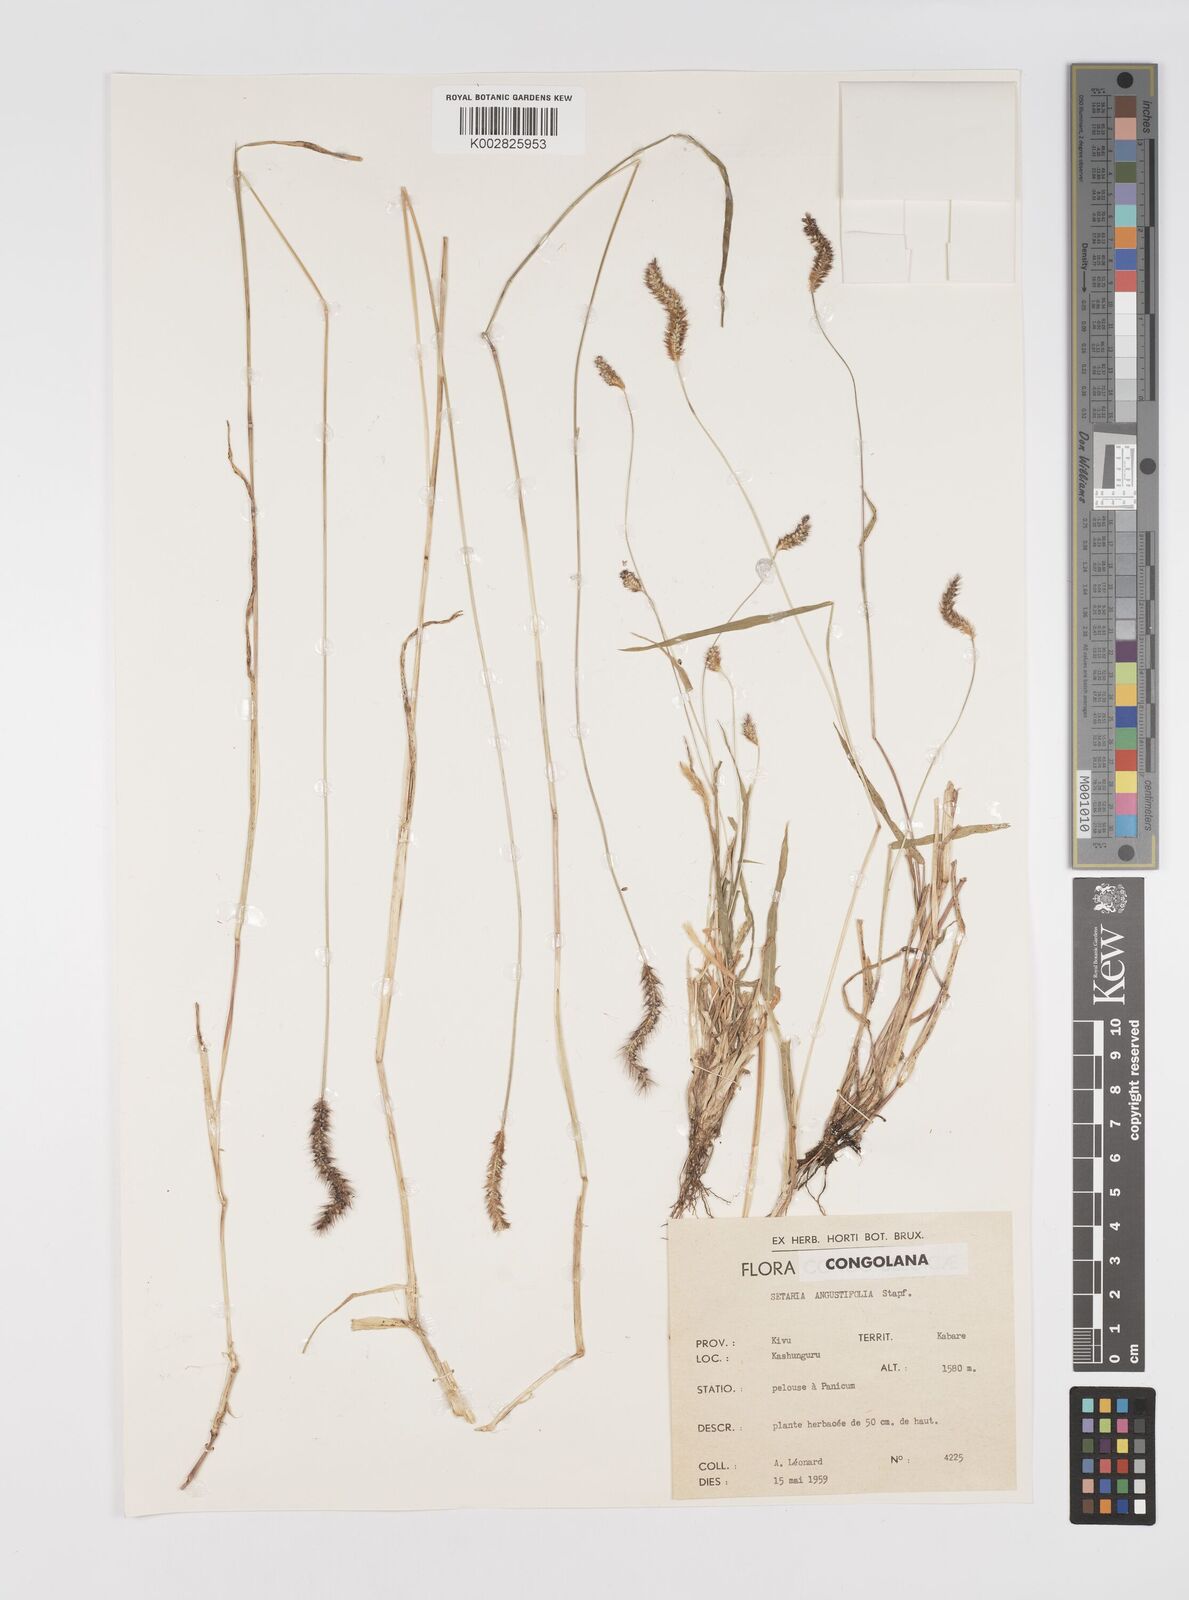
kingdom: Plantae
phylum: Tracheophyta
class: Liliopsida
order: Poales
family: Poaceae
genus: Setaria
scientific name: Setaria pumila
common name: Yellow bristle-grass
